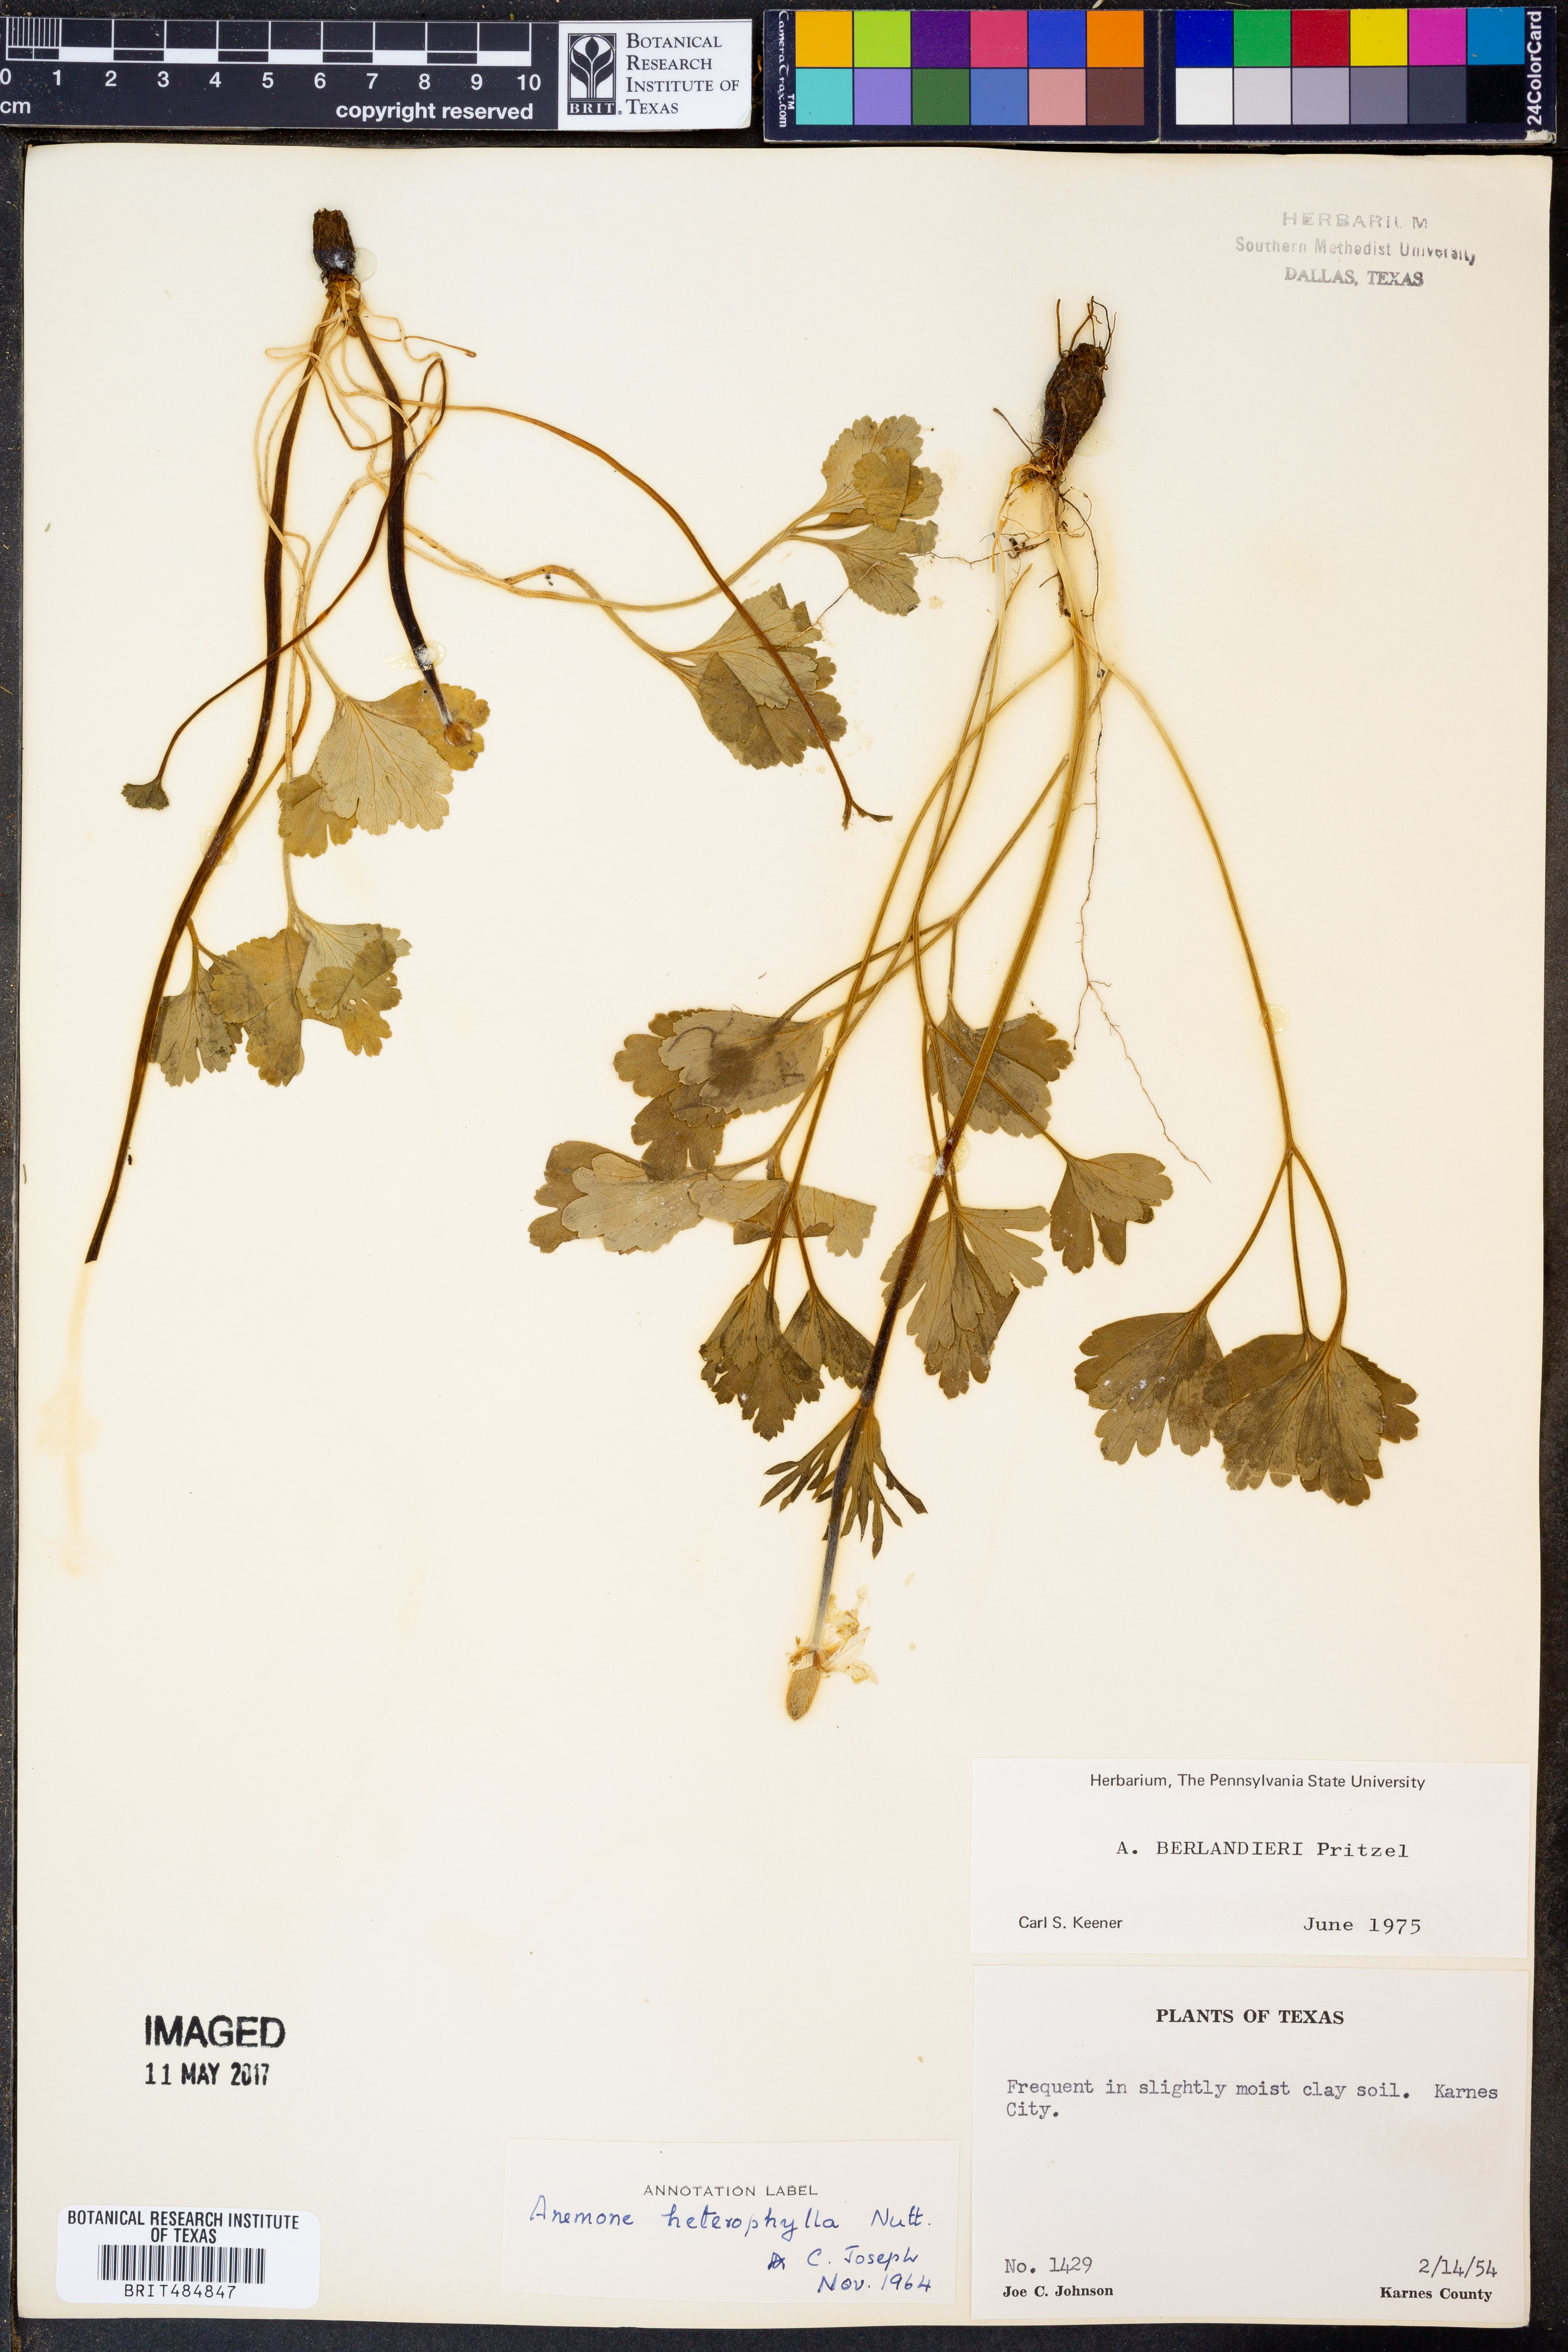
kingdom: Plantae
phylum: Tracheophyta
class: Magnoliopsida
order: Ranunculales
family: Ranunculaceae
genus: Anemone
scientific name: Anemone berlandieri
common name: Ten-petal anemone
